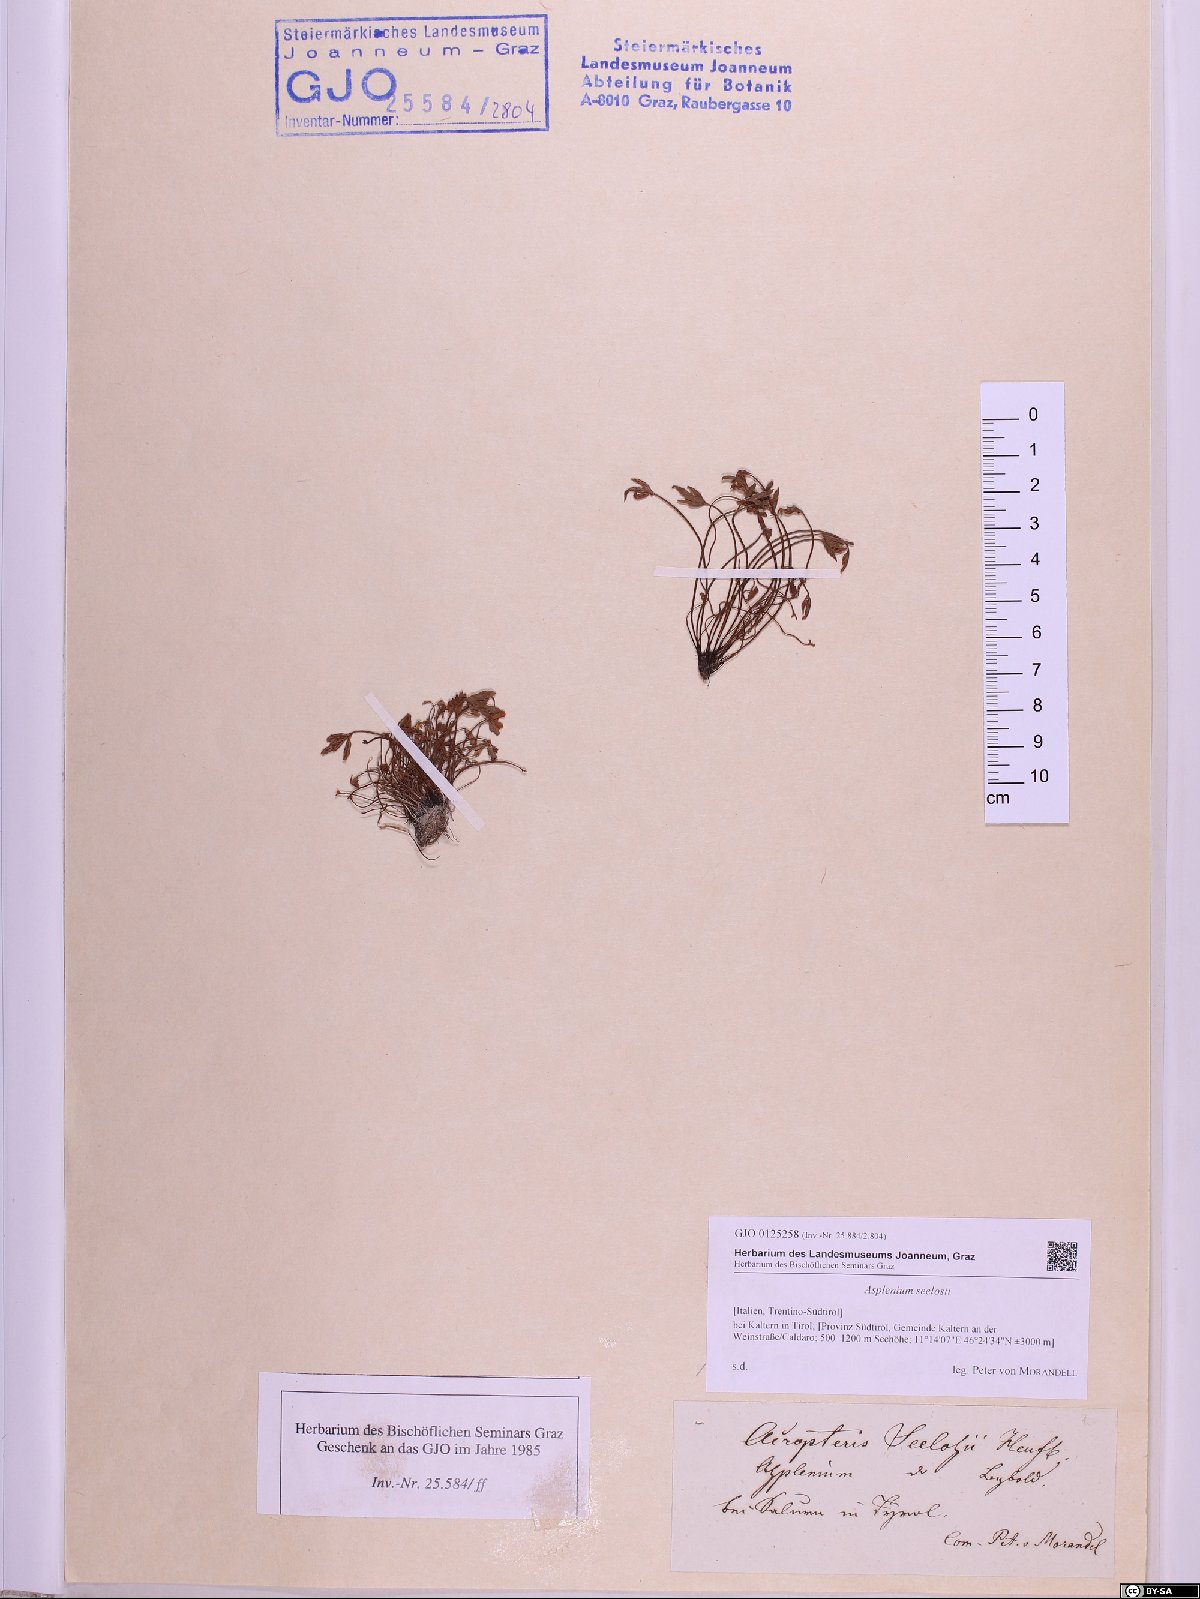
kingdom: Plantae
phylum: Tracheophyta
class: Polypodiopsida
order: Polypodiales
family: Aspleniaceae
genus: Asplenium
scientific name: Asplenium seelosii
